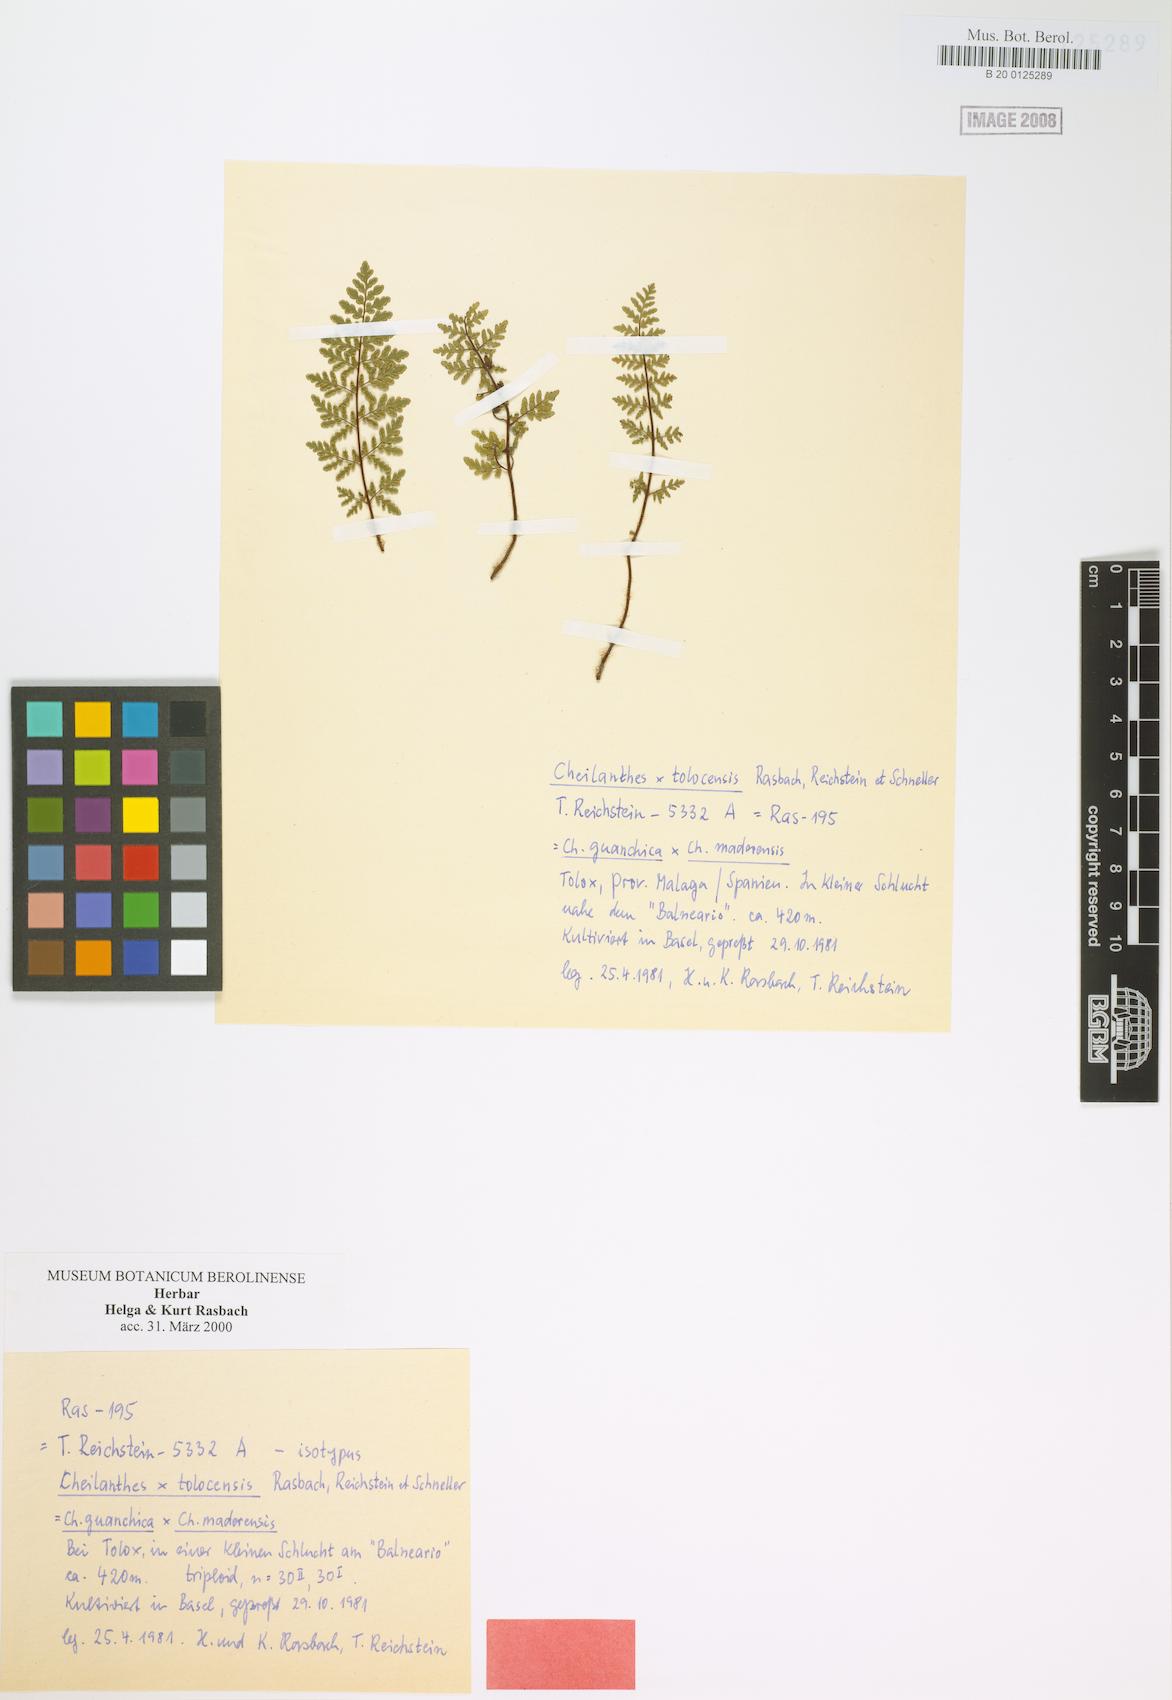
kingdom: Plantae
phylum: Tracheophyta
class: Polypodiopsida
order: Polypodiales
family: Pteridaceae
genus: Oeosporangium
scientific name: Oeosporangium malacitense
